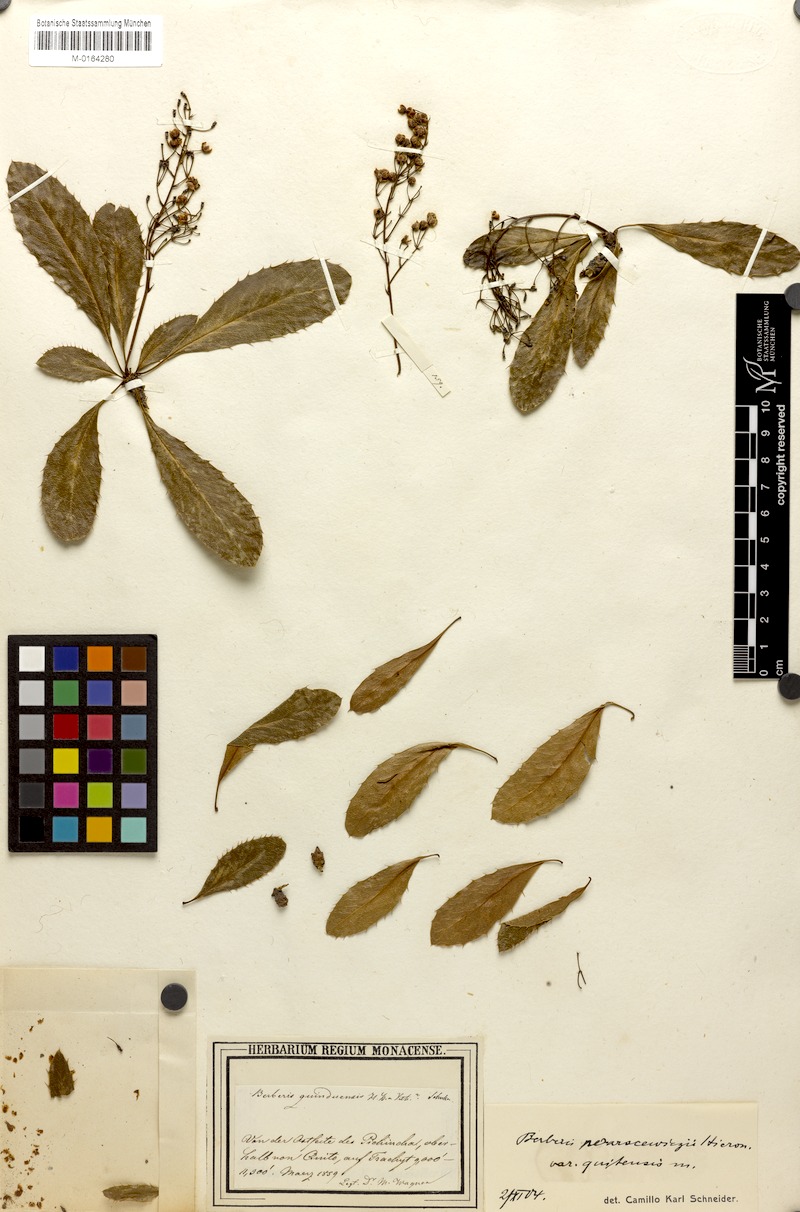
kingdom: Plantae
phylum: Tracheophyta
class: Magnoliopsida
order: Ranunculales
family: Berberidaceae
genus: Berberis
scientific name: Berberis multiflora
